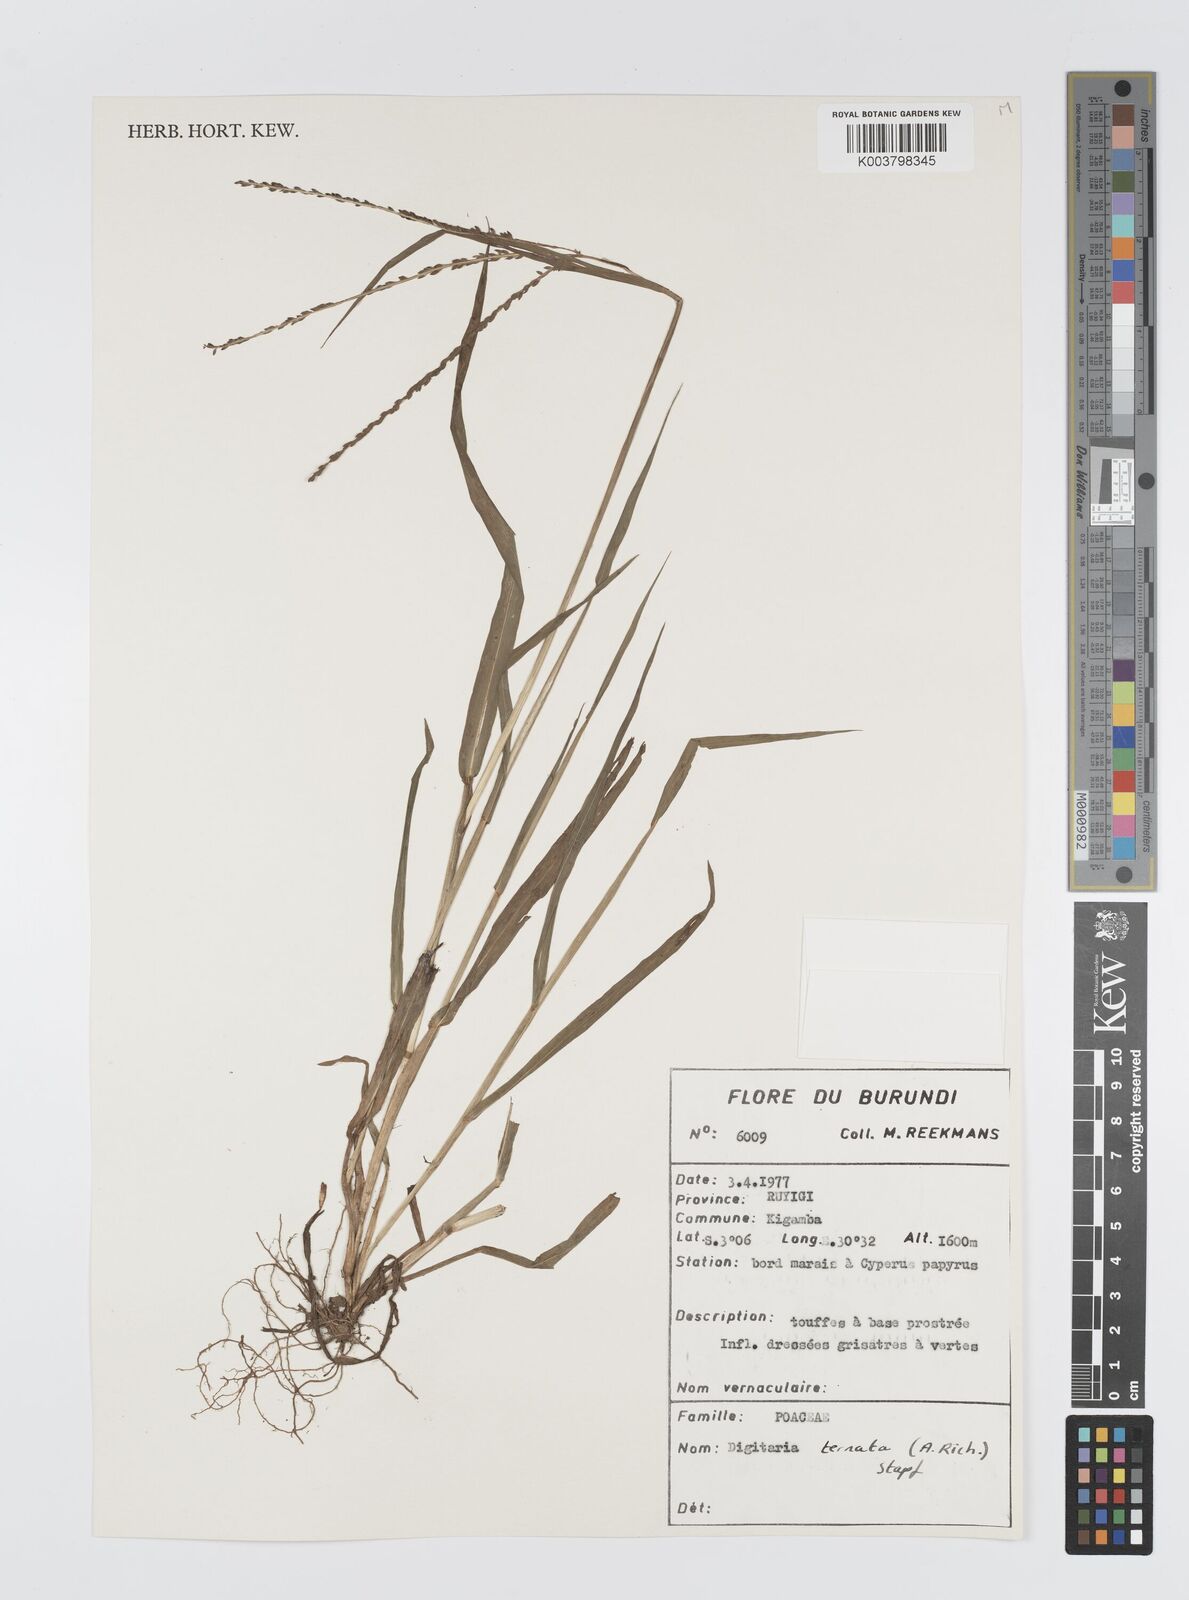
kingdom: Plantae
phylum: Tracheophyta
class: Liliopsida
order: Poales
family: Poaceae
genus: Digitaria
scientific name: Digitaria ternata
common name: Blackseed crabgrass
